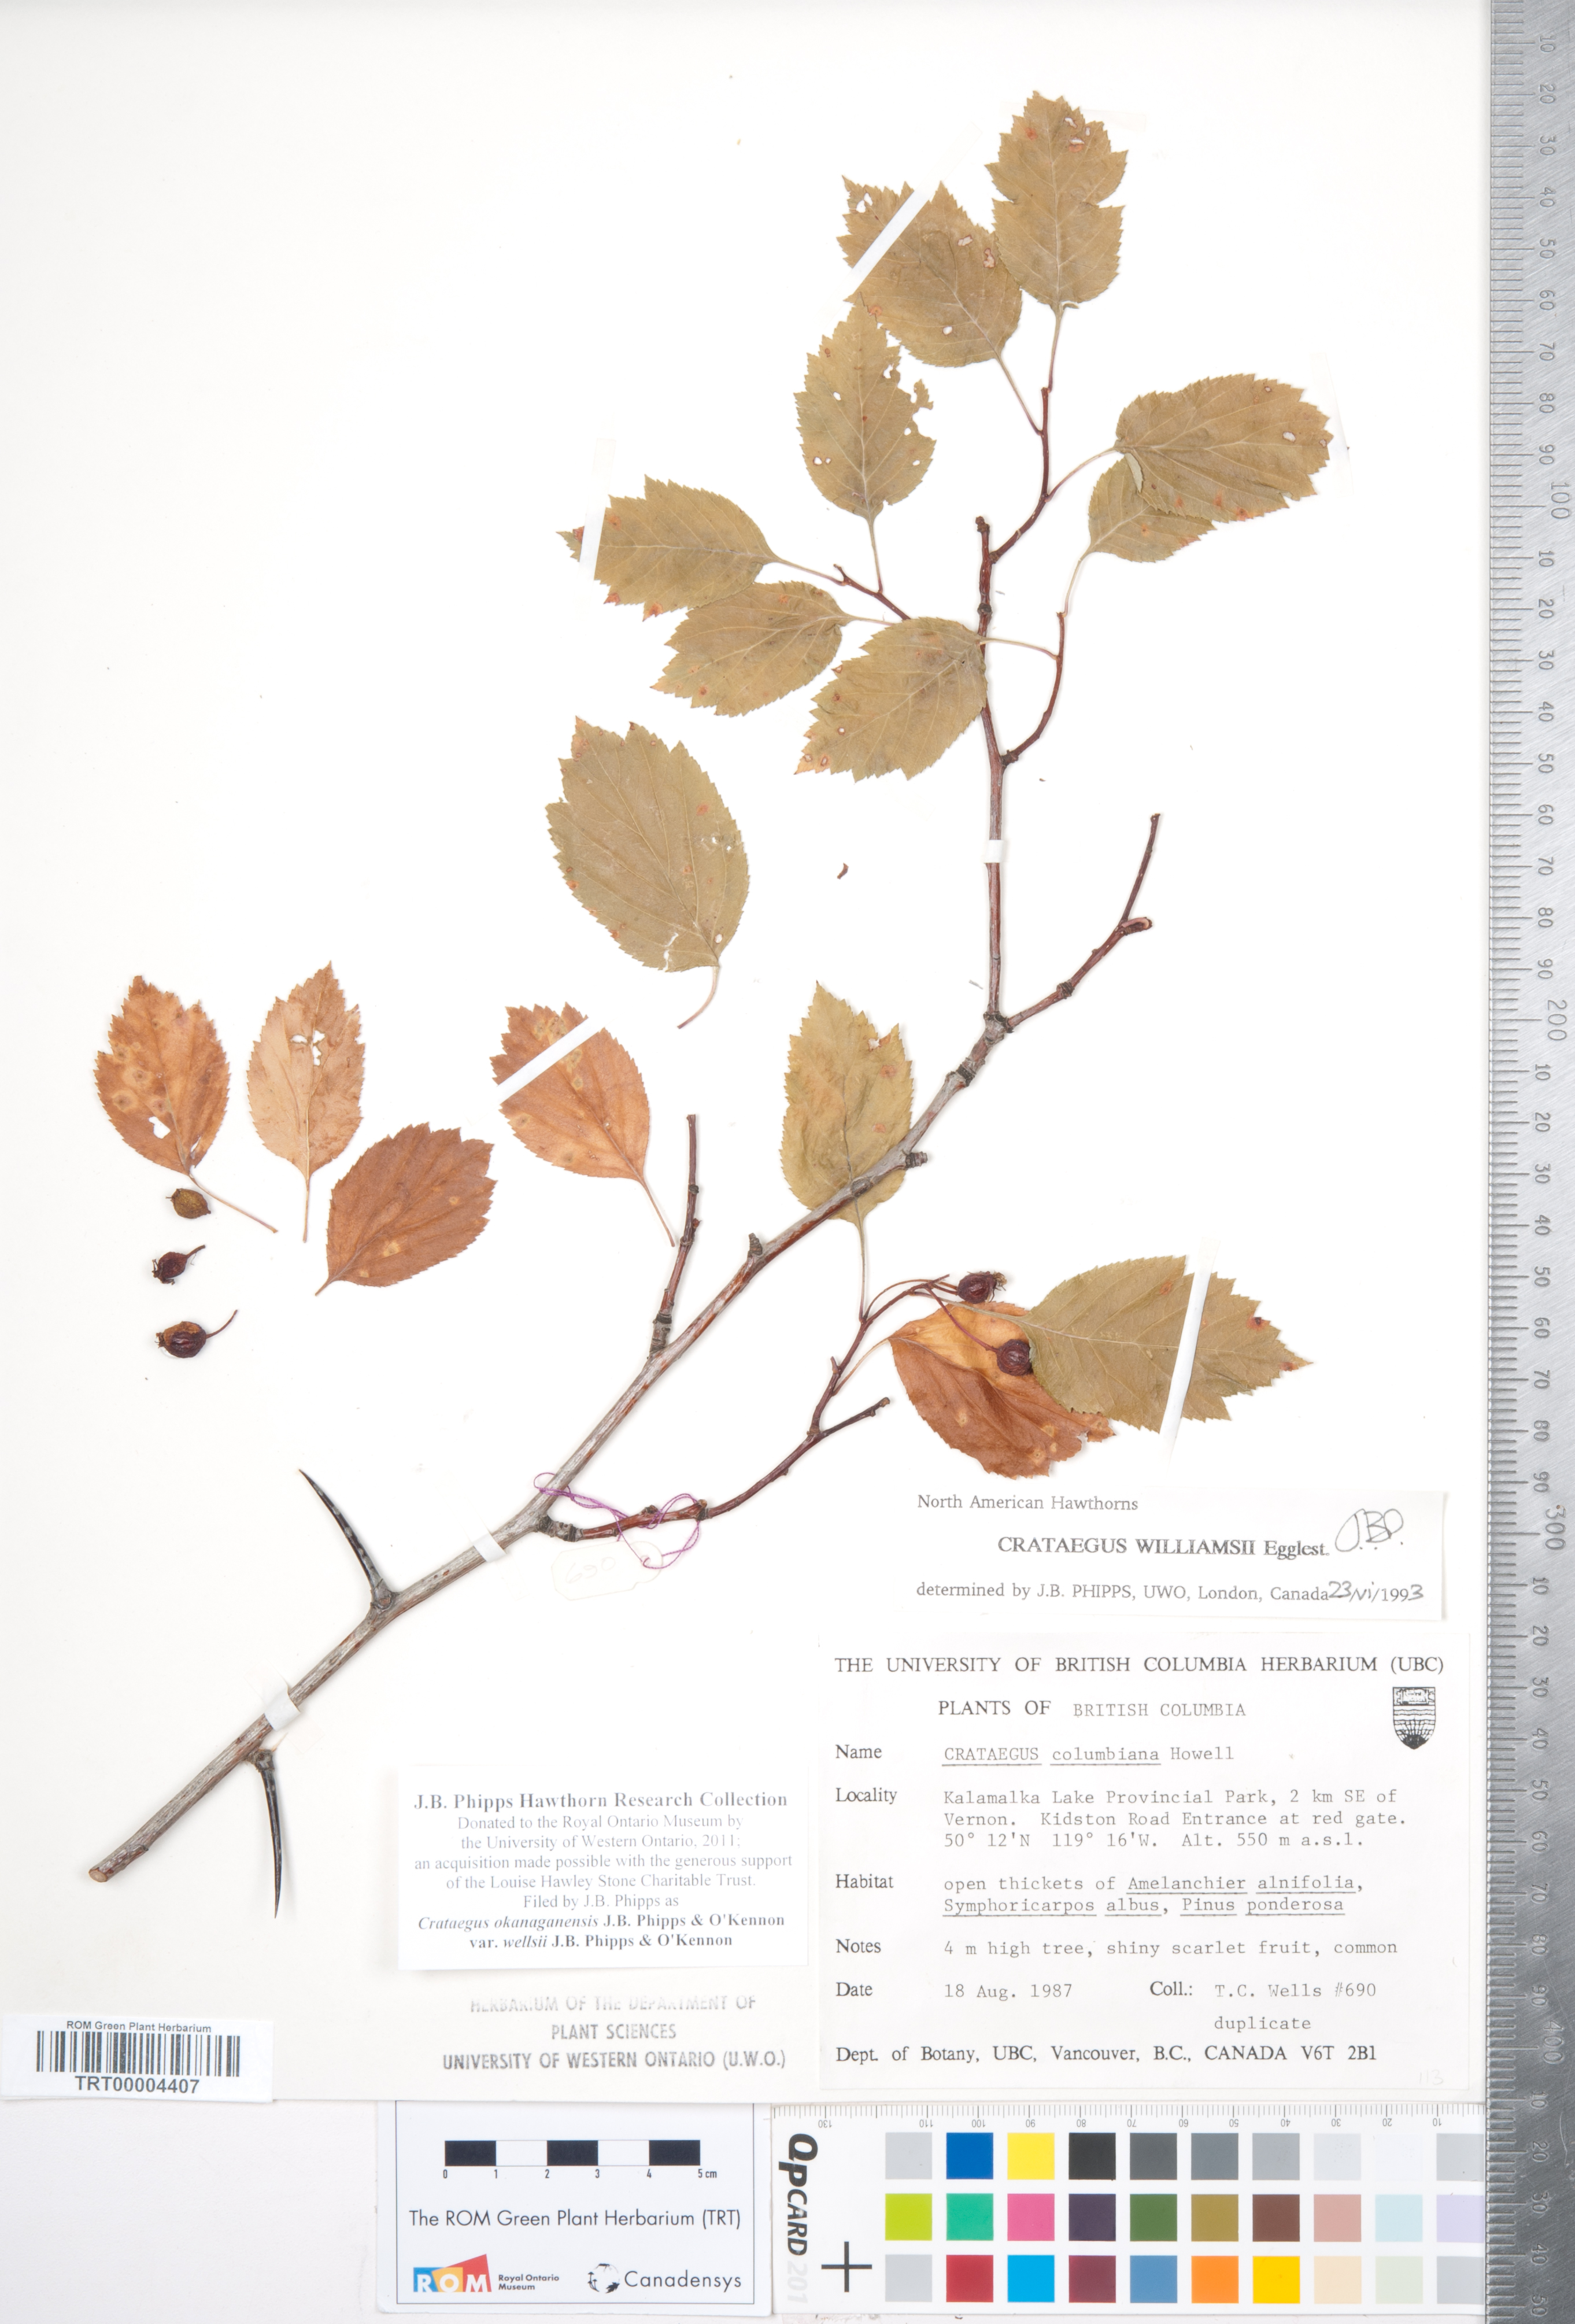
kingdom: Plantae
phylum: Tracheophyta
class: Magnoliopsida
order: Rosales
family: Rosaceae
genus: Crataegus
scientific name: Crataegus okanaganensis
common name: Okanagan valley hawthorn
